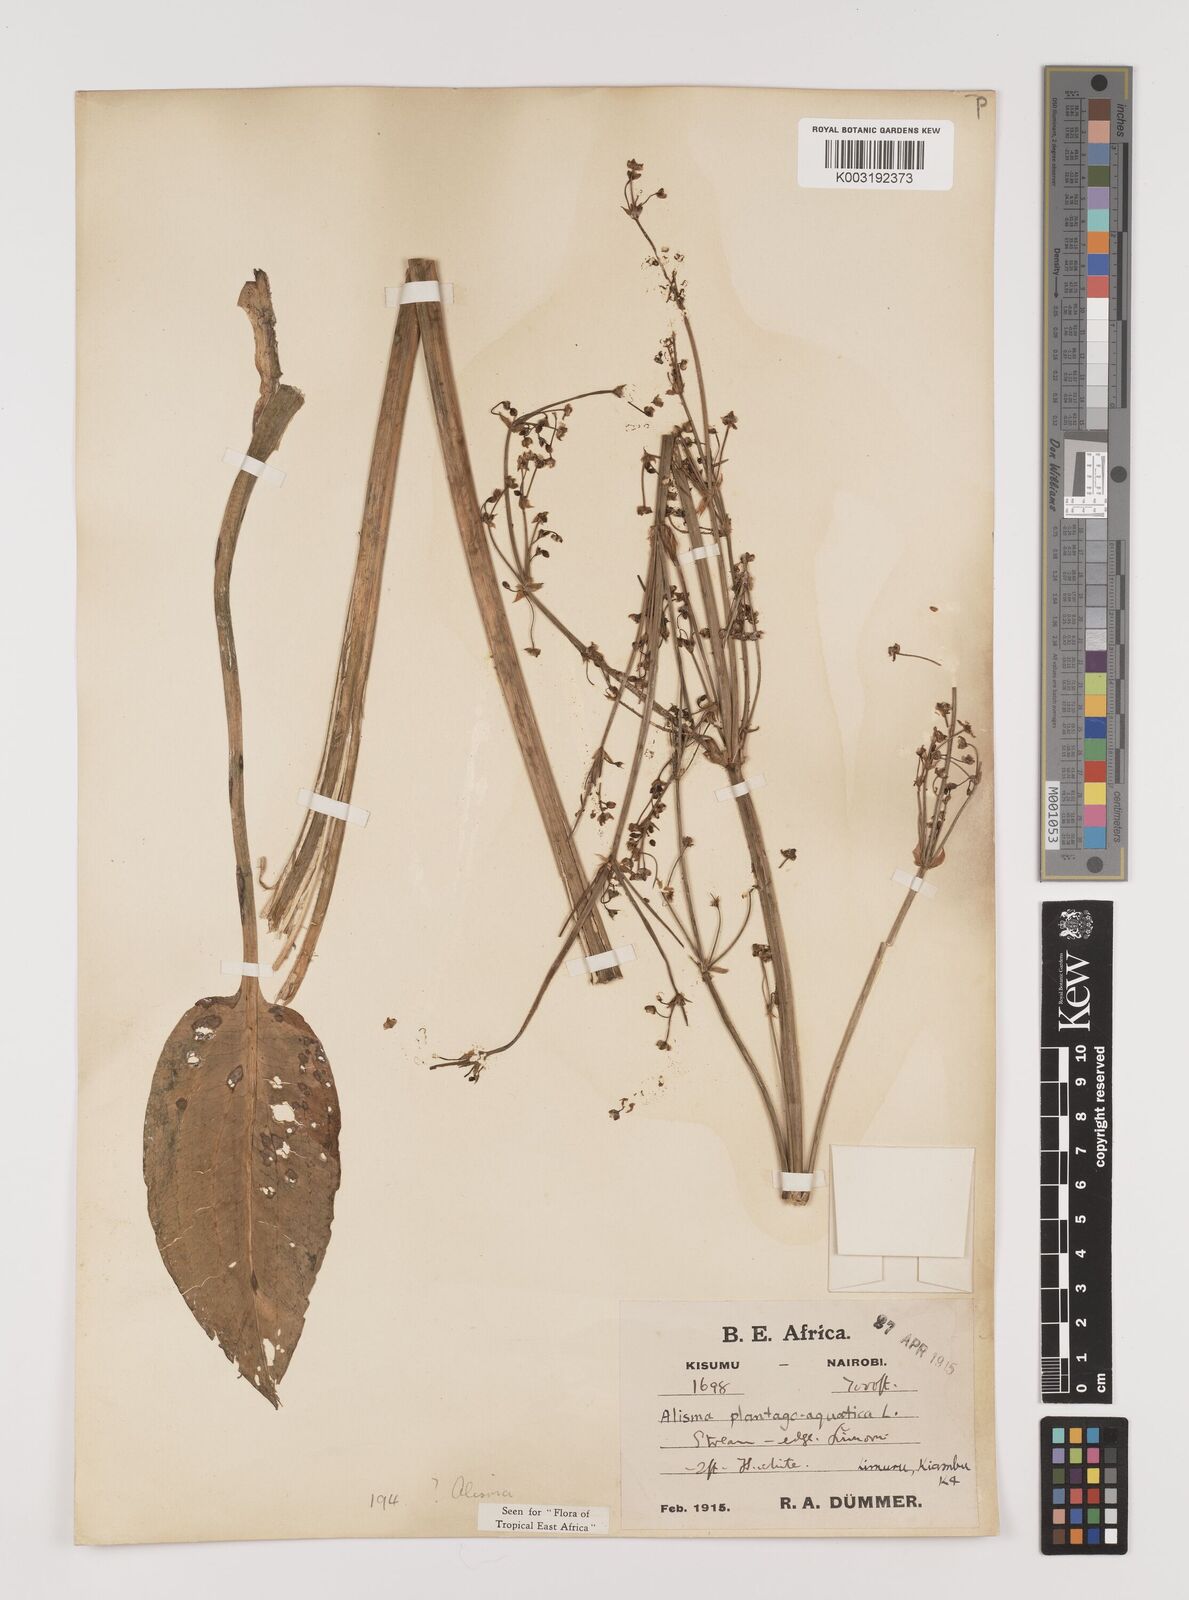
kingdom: Plantae
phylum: Tracheophyta
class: Liliopsida
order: Alismatales
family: Alismataceae
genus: Alisma
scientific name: Alisma plantago-aquatica
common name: Water-plantain
